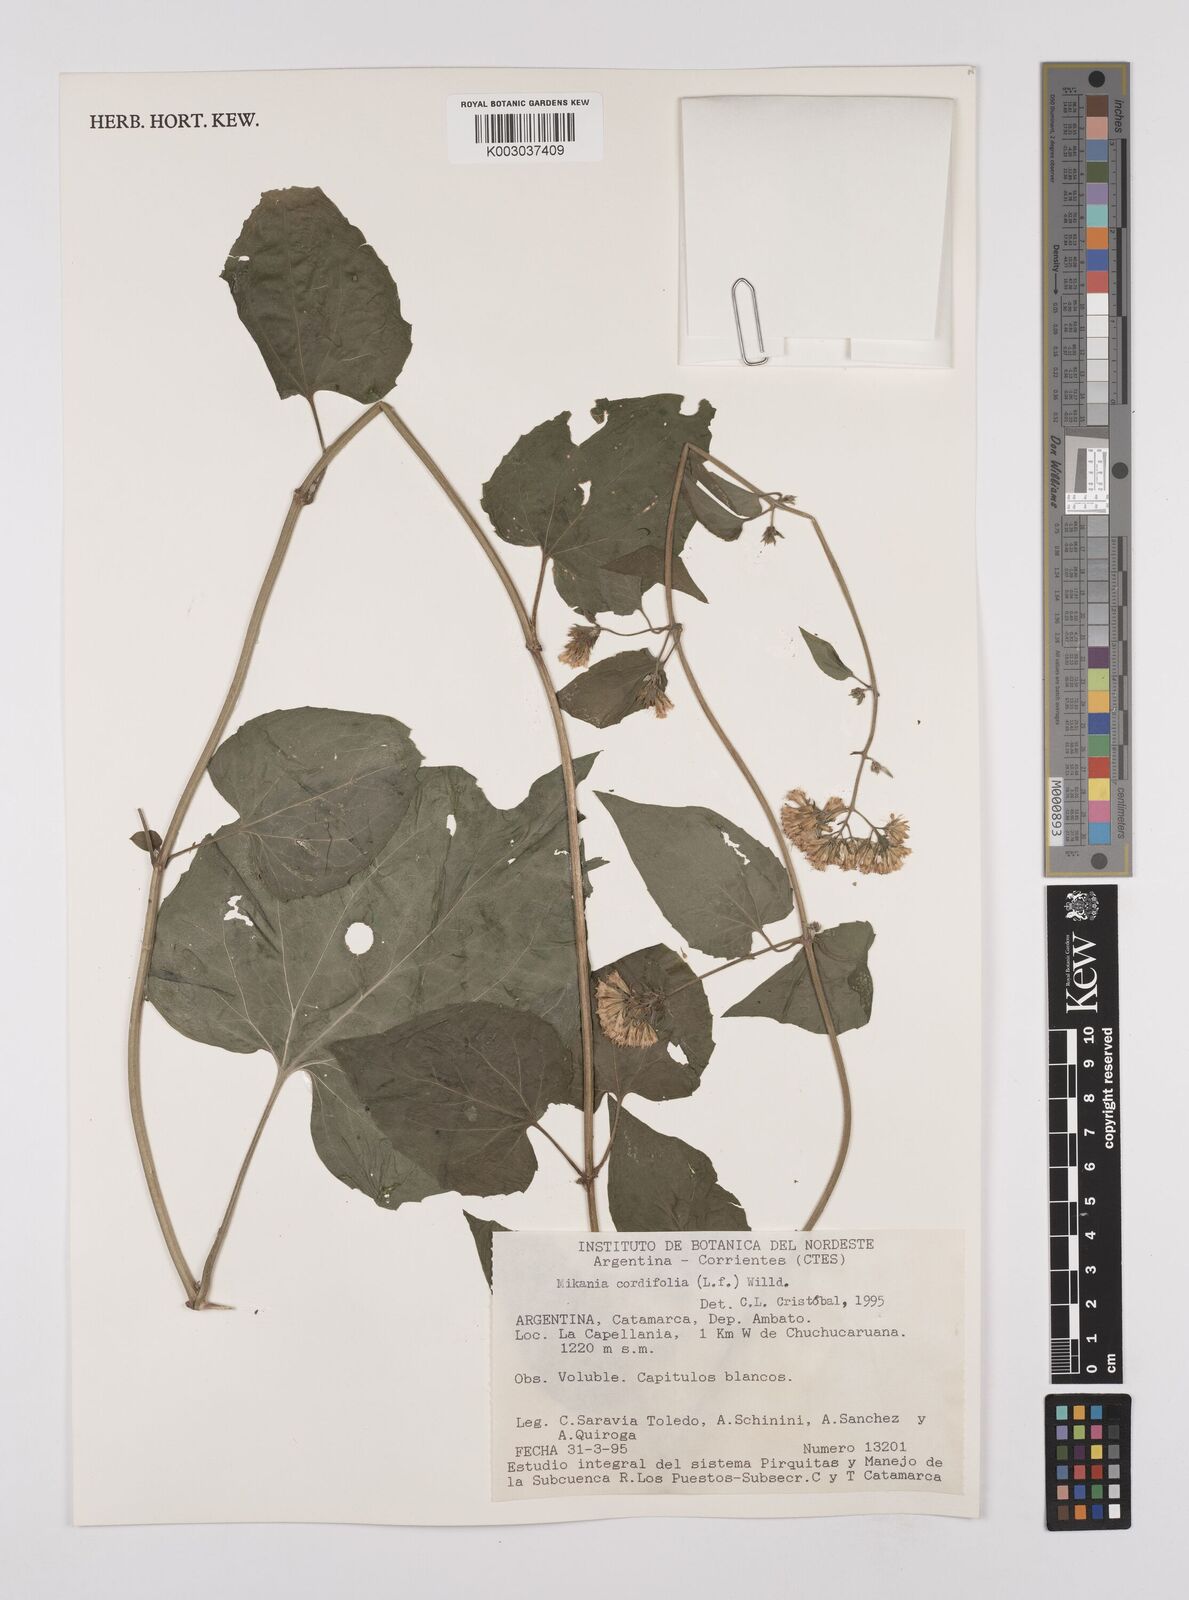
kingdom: Plantae
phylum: Tracheophyta
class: Magnoliopsida
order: Asterales
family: Asteraceae
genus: Mikania
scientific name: Mikania cordifolia
